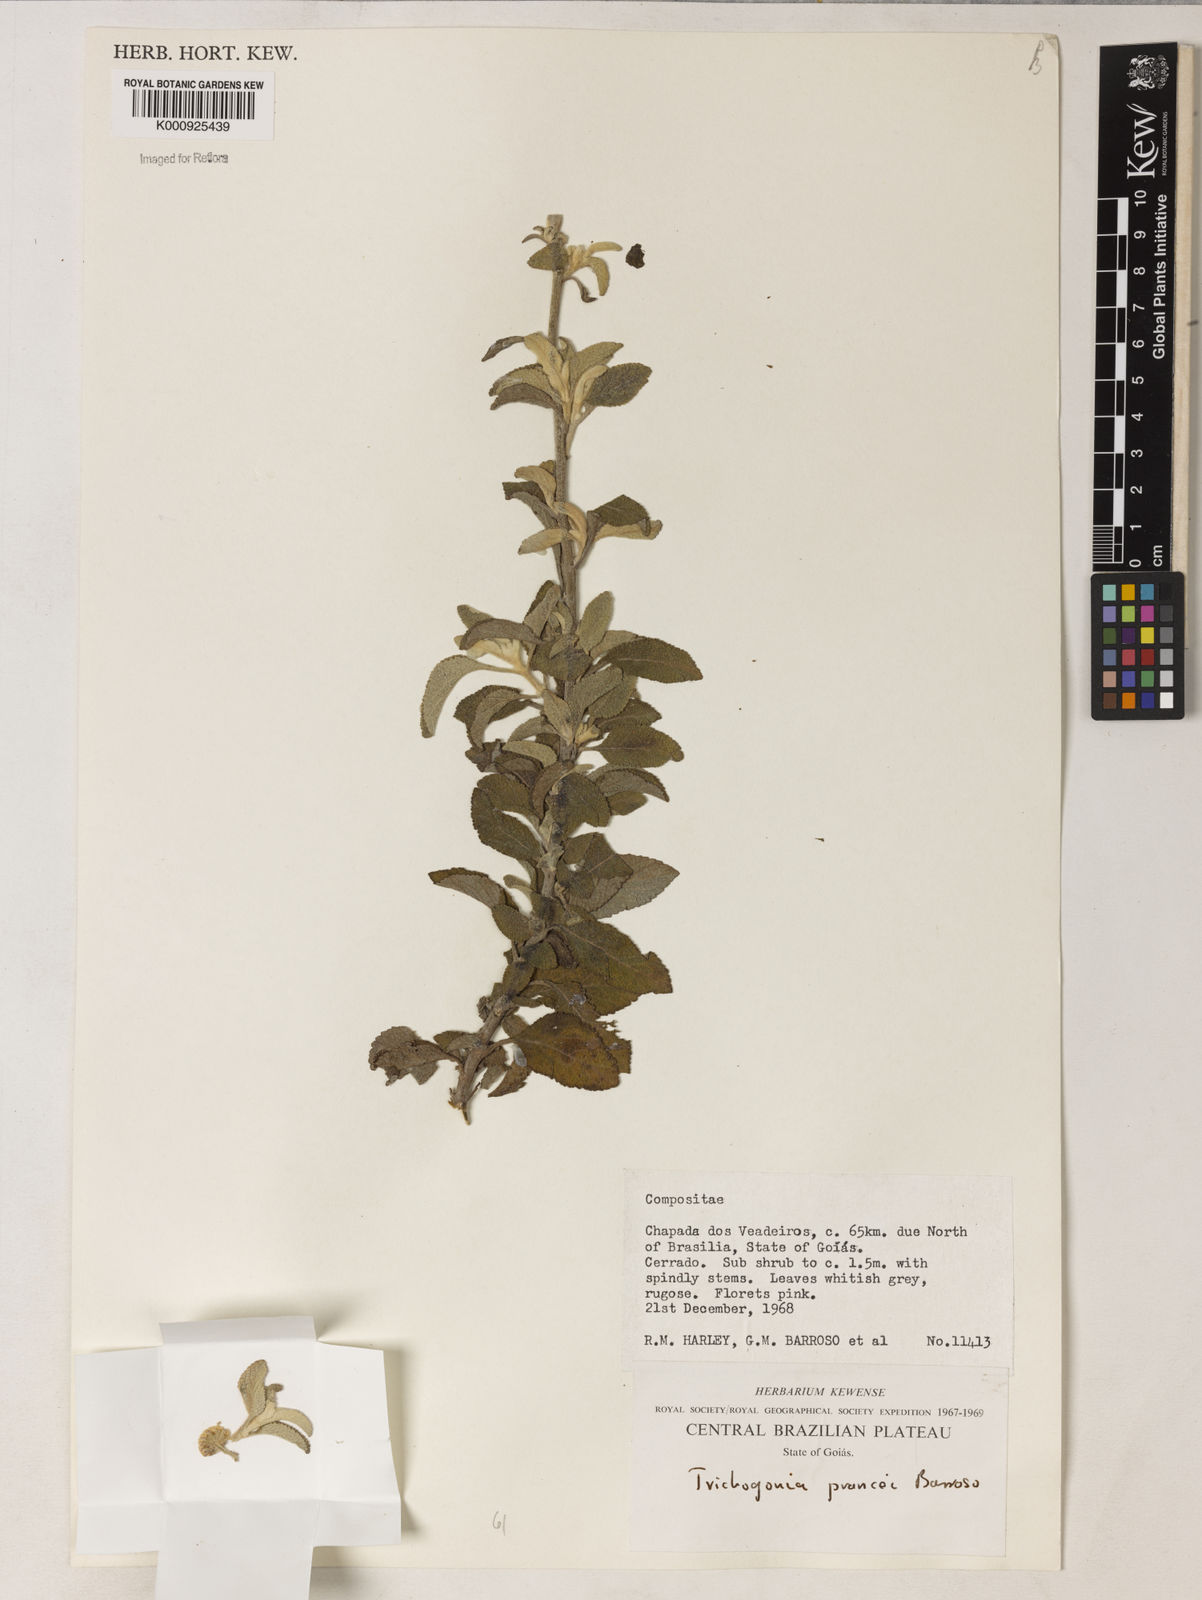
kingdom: Plantae
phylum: Tracheophyta
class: Magnoliopsida
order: Asterales
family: Asteraceae
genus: Trichogonia
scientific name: Trichogonia prancei
